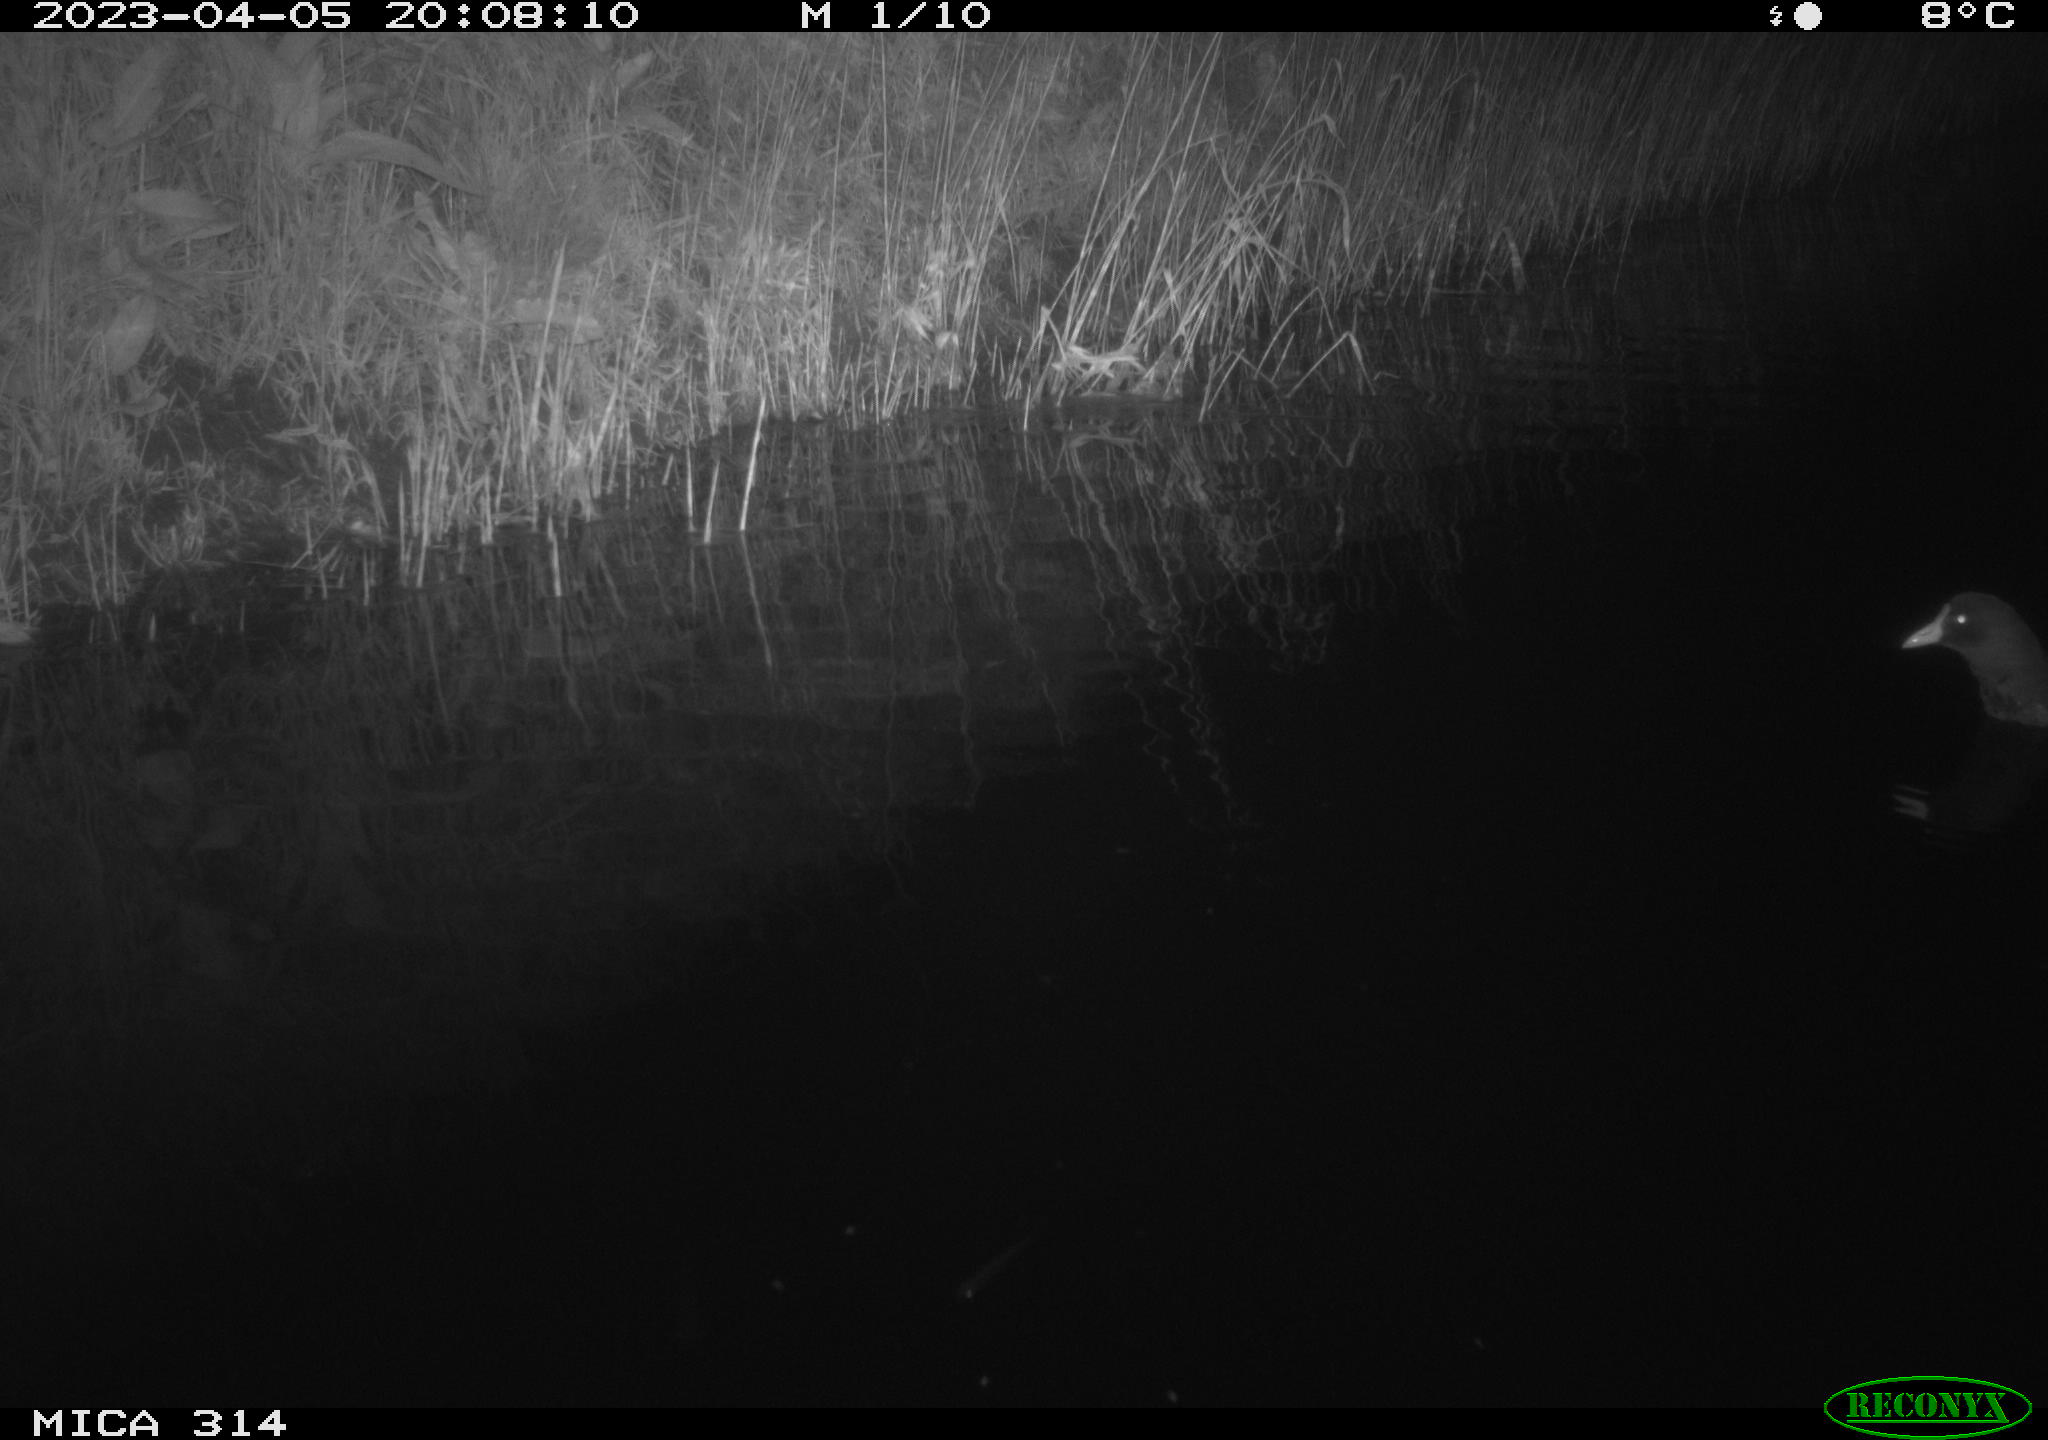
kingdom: Animalia
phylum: Chordata
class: Aves
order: Gruiformes
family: Rallidae
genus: Gallinula
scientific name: Gallinula chloropus
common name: Common moorhen
